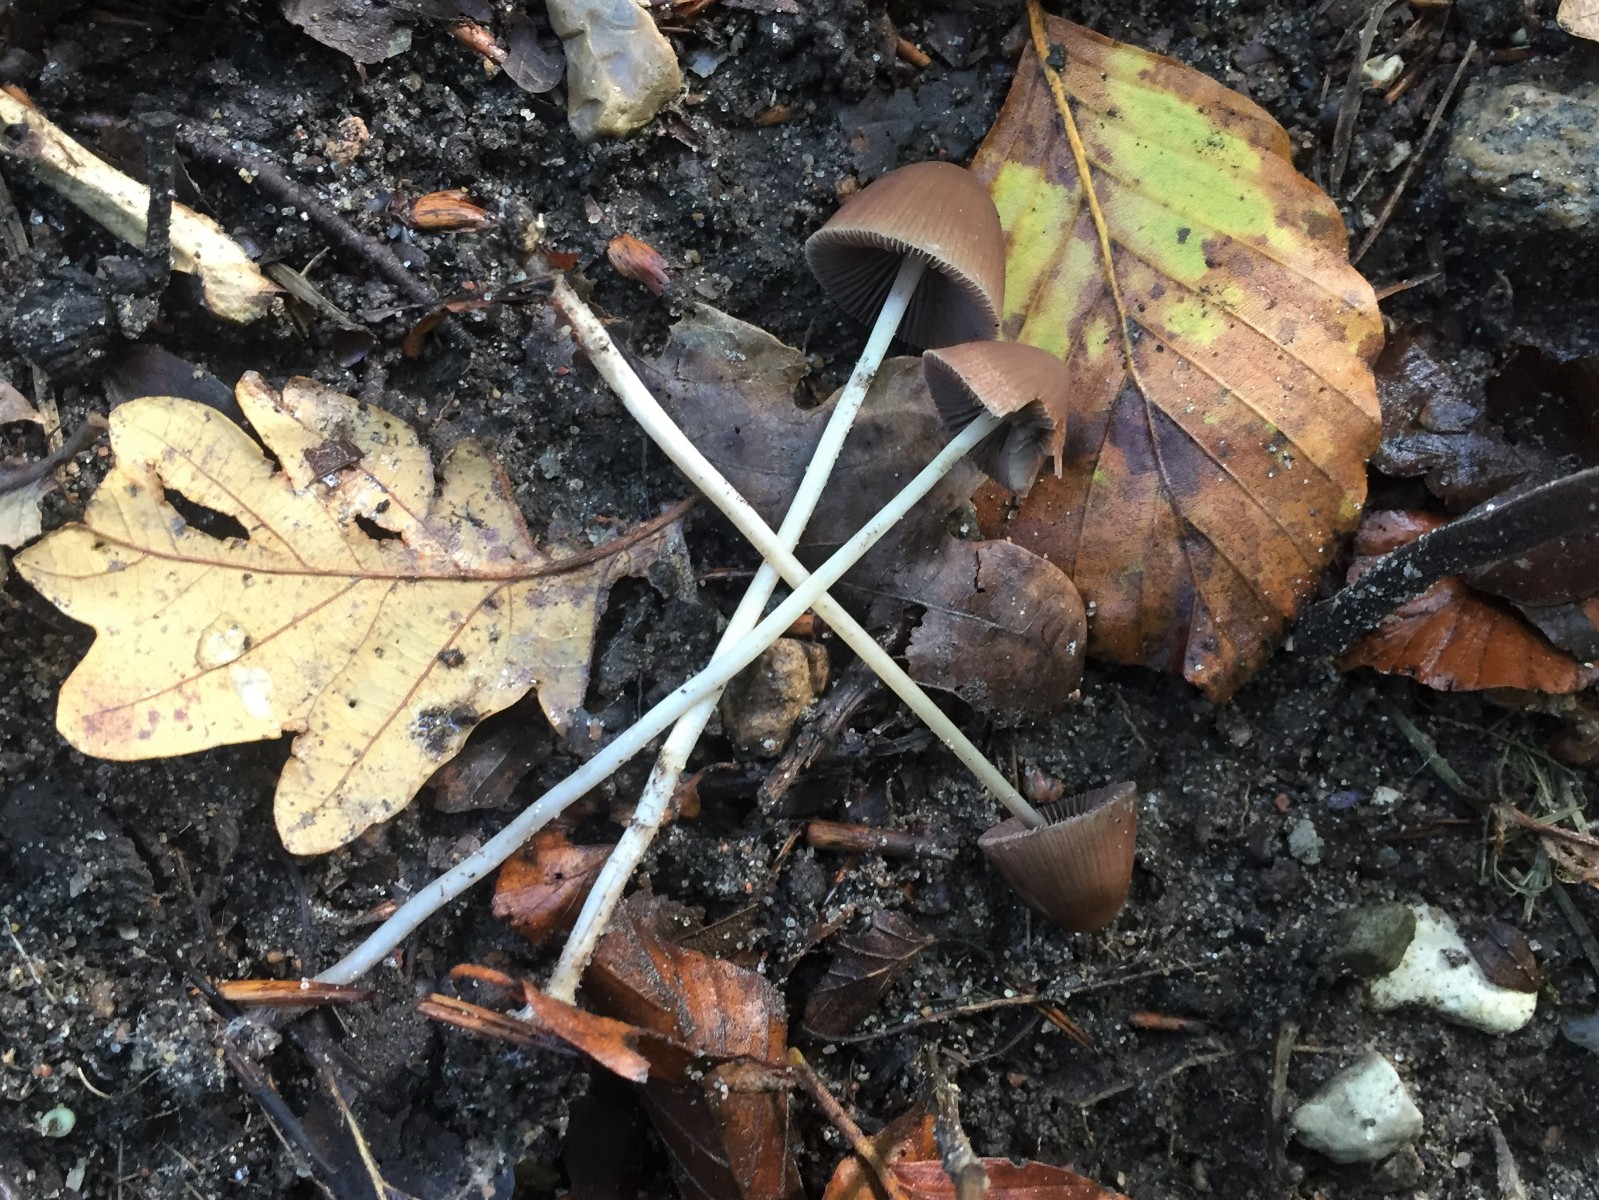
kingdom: Fungi
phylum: Basidiomycota
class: Agaricomycetes
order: Agaricales
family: Psathyrellaceae
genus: Parasola
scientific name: Parasola conopilea
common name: kegle-hjulhat
